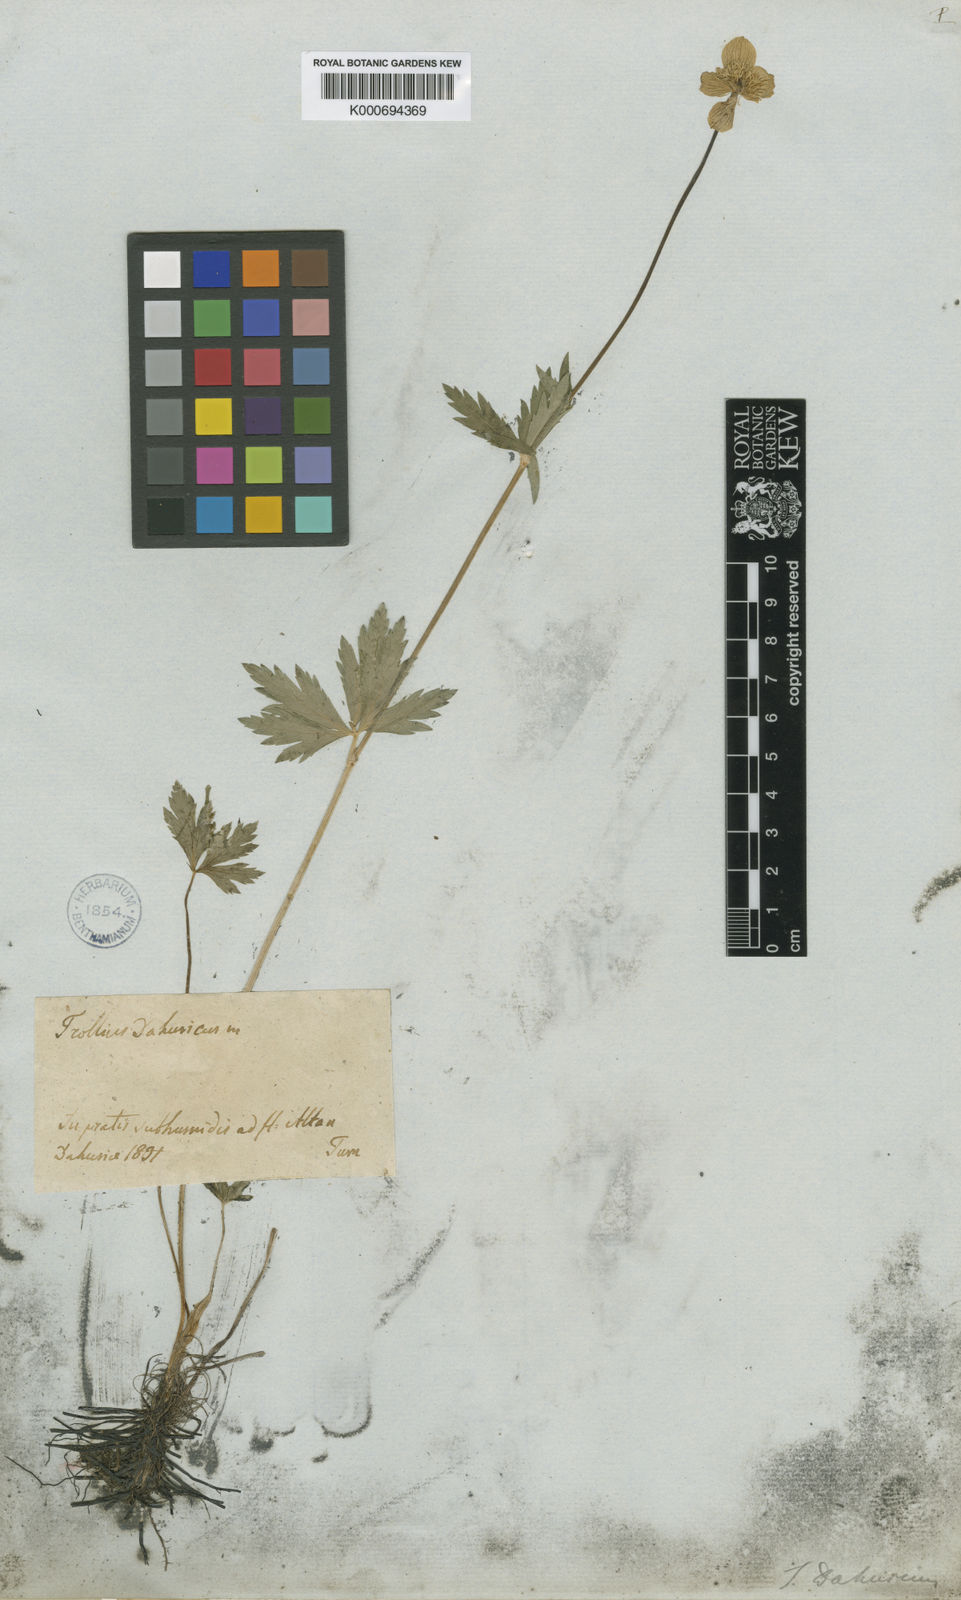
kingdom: Plantae
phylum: Tracheophyta
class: Magnoliopsida
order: Ranunculales
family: Ranunculaceae
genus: Trollius
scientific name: Trollius asiaticus
